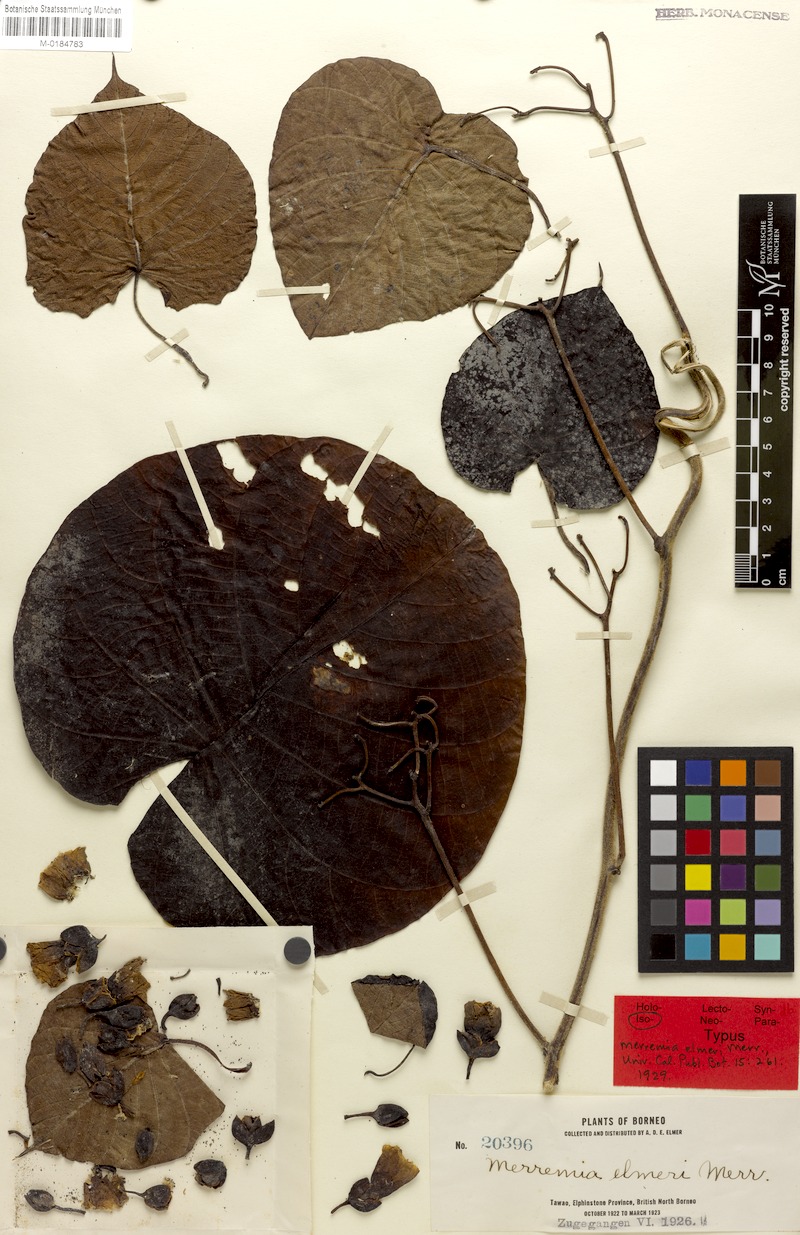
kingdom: Plantae
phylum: Tracheophyta
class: Magnoliopsida
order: Solanales
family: Convolvulaceae
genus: Decalobanthus
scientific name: Decalobanthus peltatus
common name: Merremia
